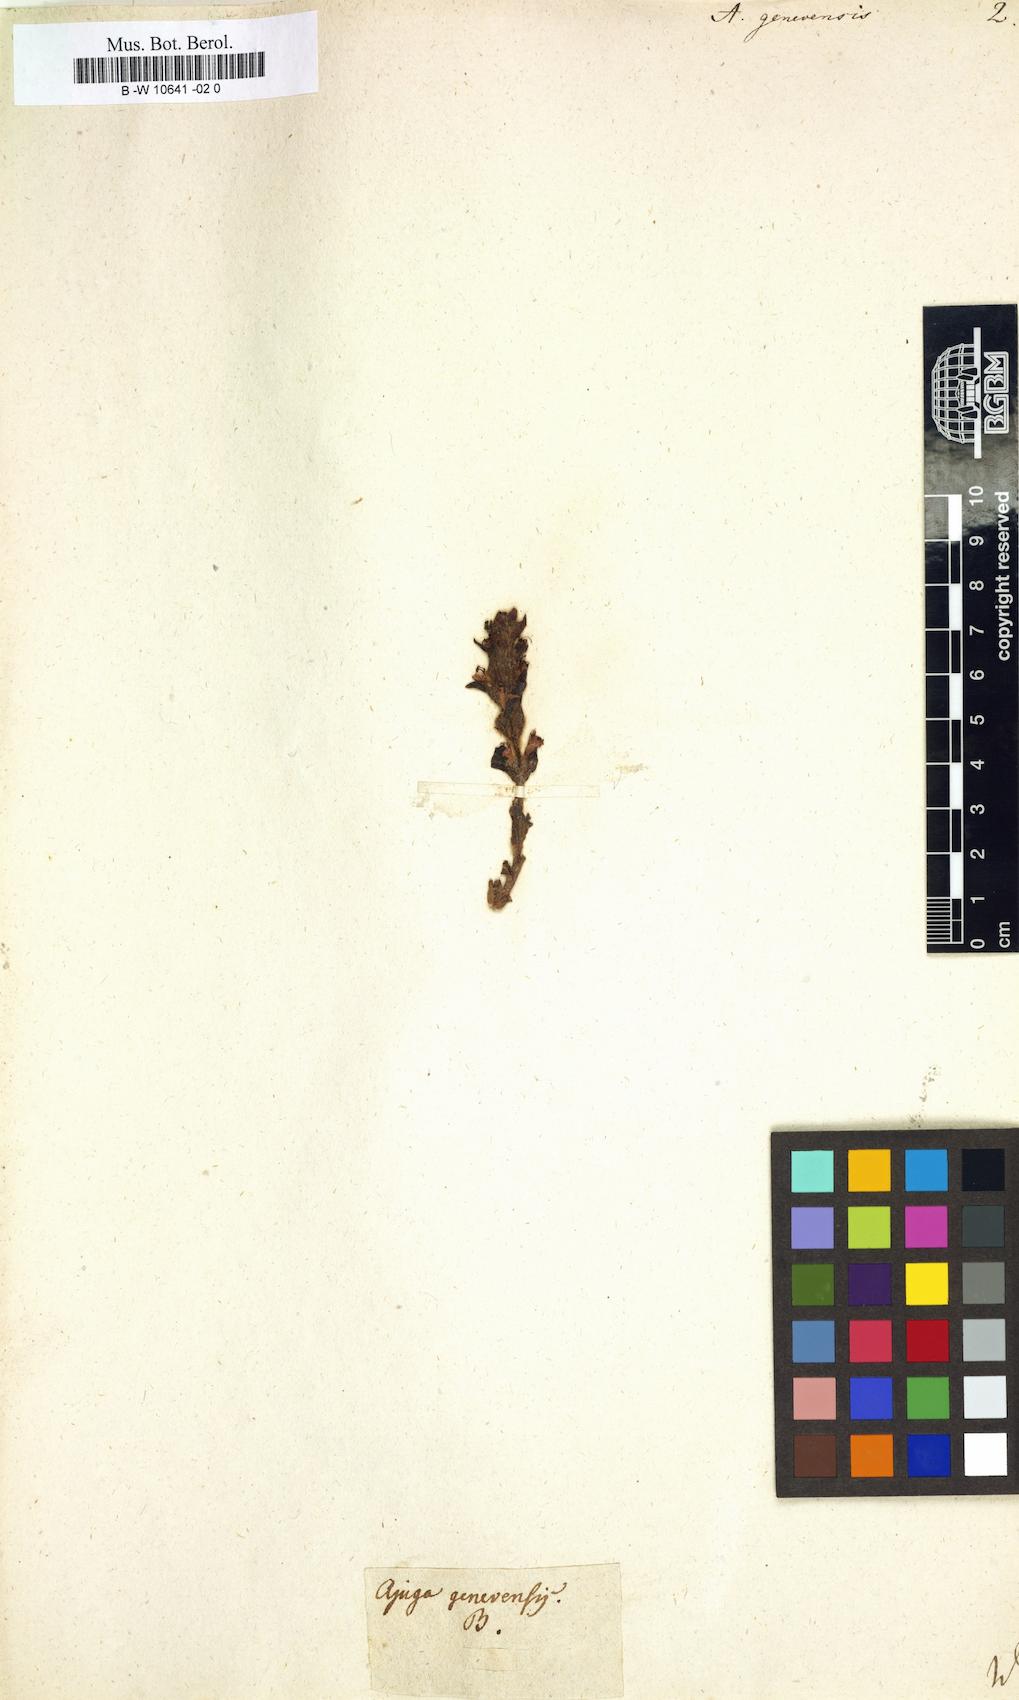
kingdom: Plantae
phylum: Tracheophyta
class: Magnoliopsida
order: Lamiales
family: Lamiaceae
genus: Ajuga
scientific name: Ajuga genevensis
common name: Blue bugle
